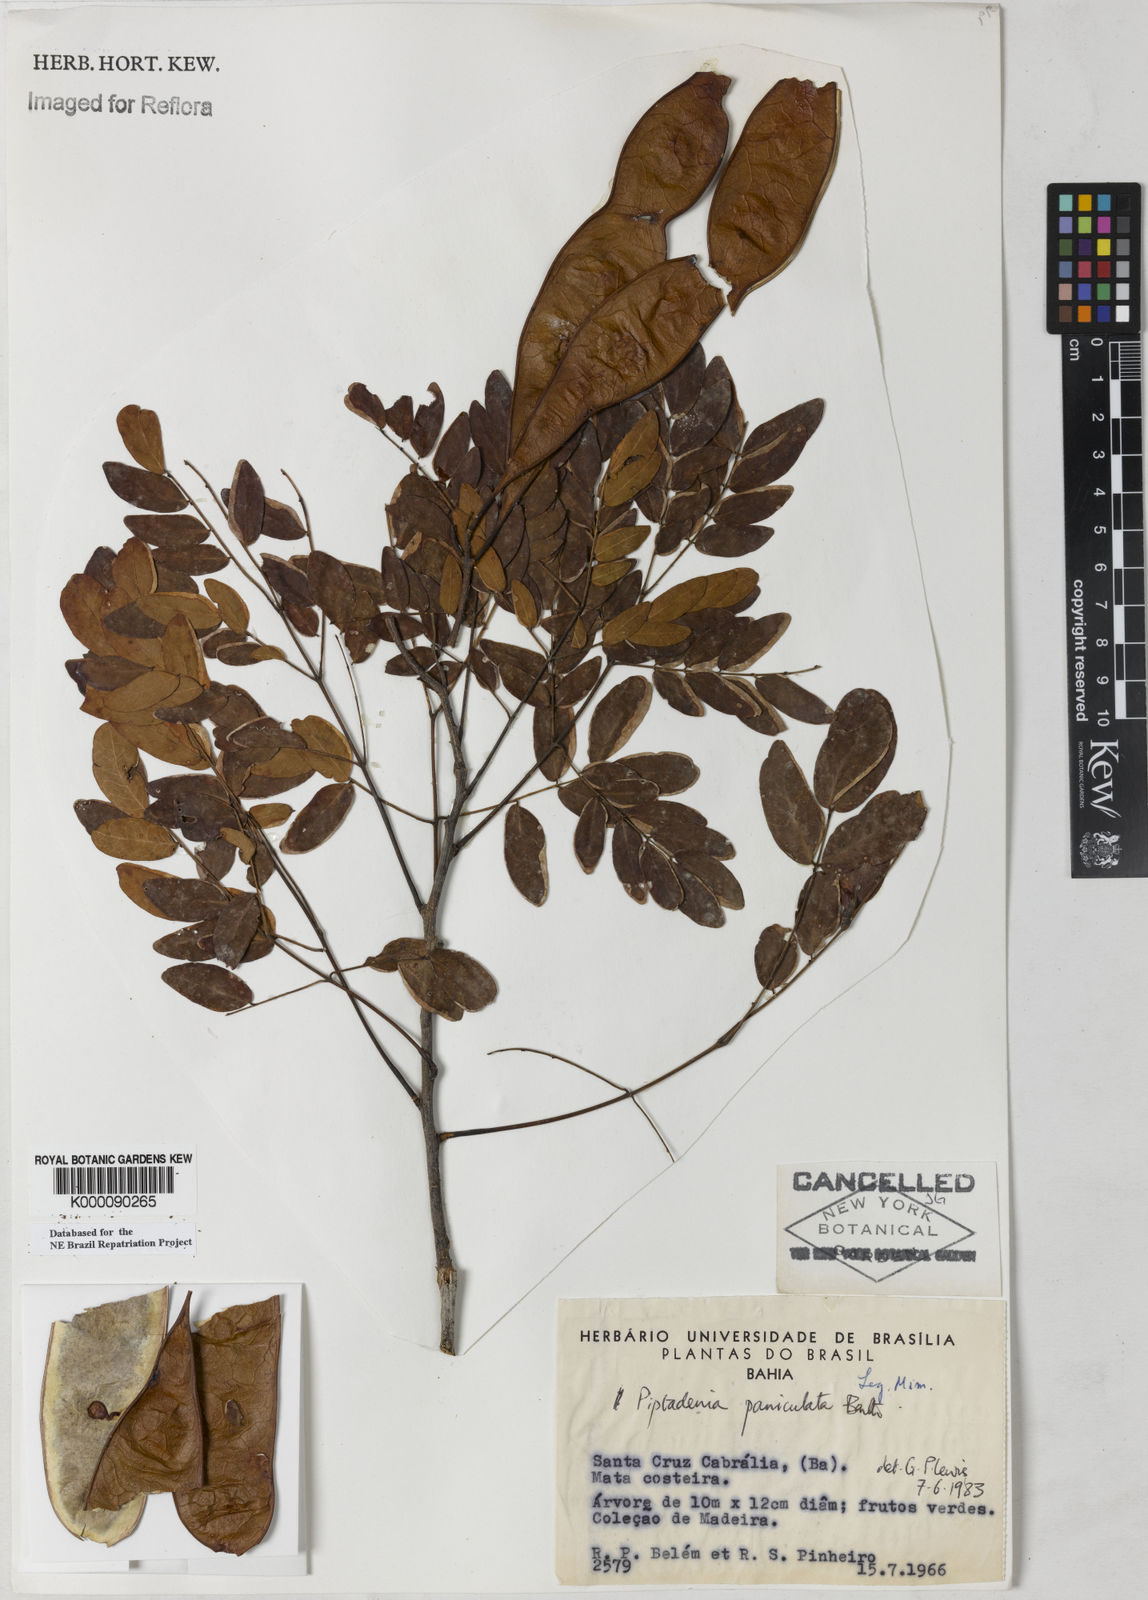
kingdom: Plantae
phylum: Tracheophyta
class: Magnoliopsida
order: Fabales
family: Fabaceae
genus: Piptadenia
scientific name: Piptadenia paniculata
